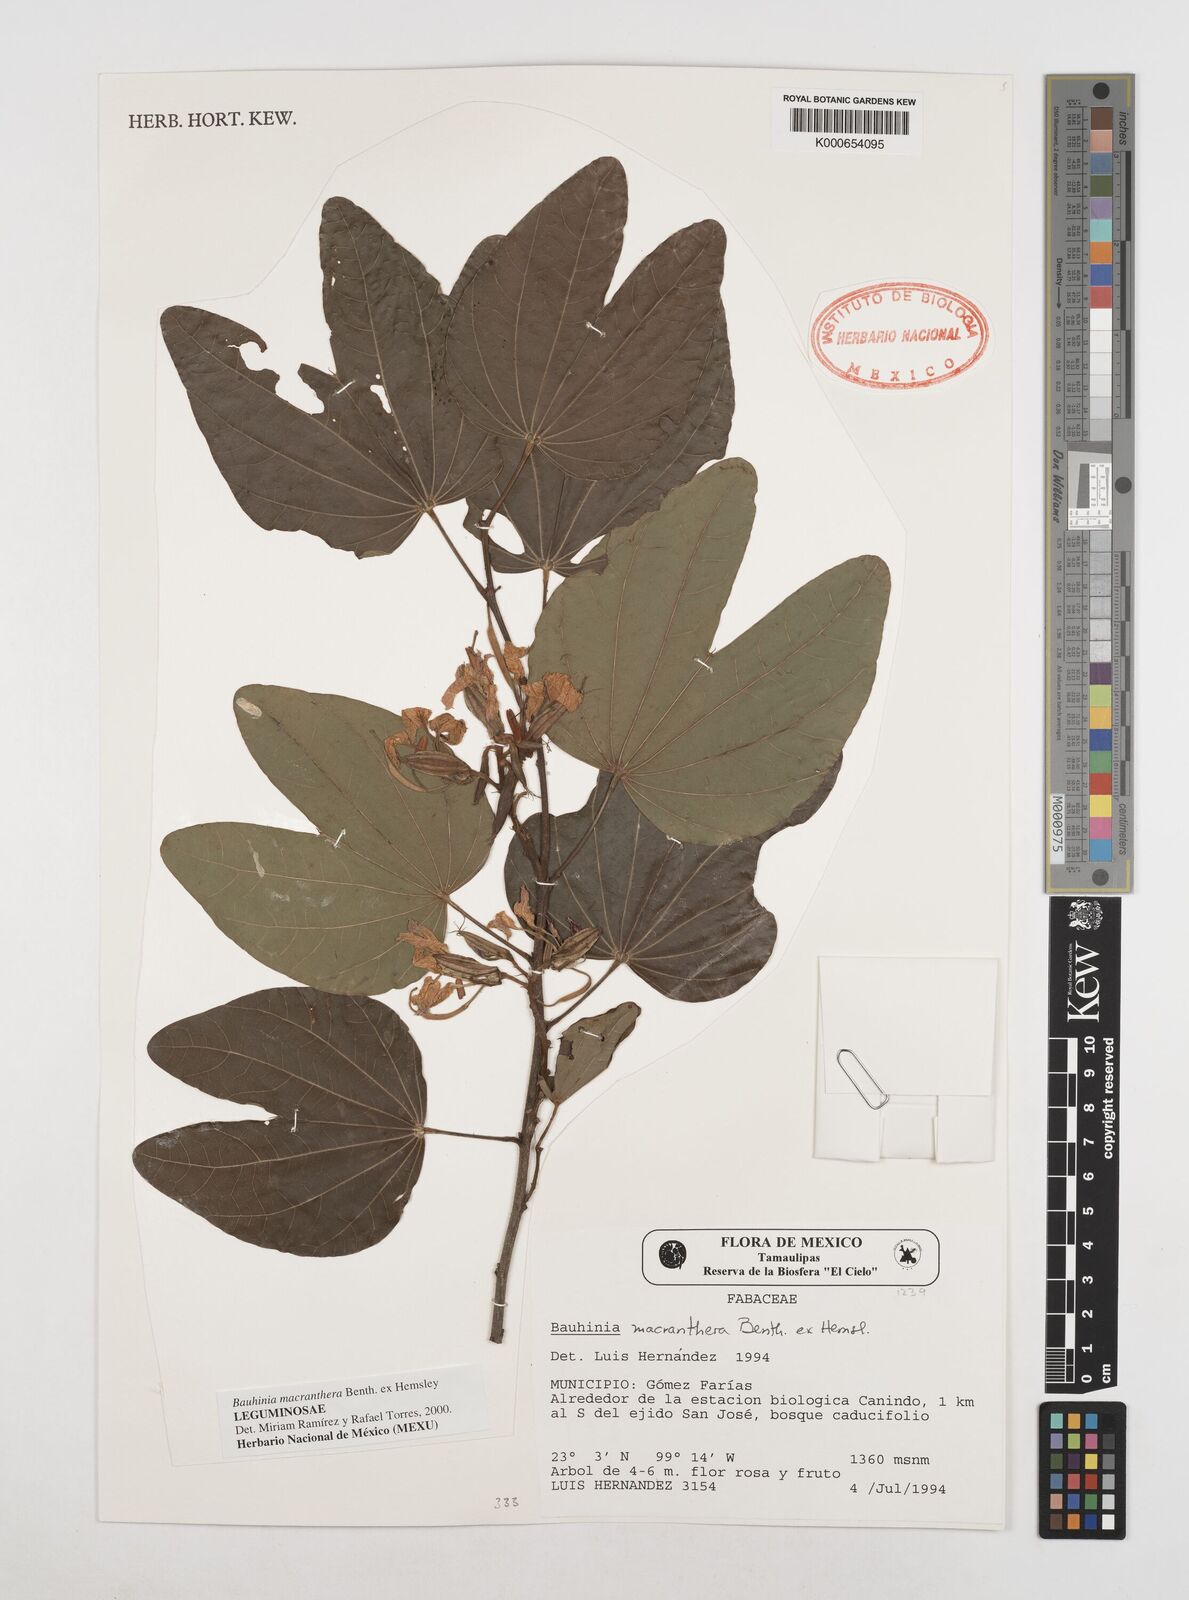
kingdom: Plantae
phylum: Tracheophyta
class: Magnoliopsida
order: Fabales
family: Fabaceae
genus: Bauhinia
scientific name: Bauhinia macranthera
